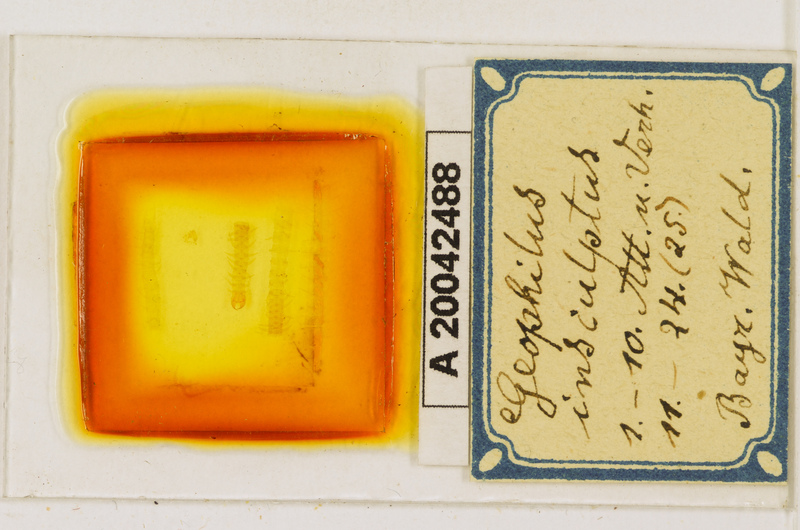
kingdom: Animalia
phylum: Arthropoda
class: Chilopoda
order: Geophilomorpha
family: Geophilidae
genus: Geophilus
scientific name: Geophilus insculptus
